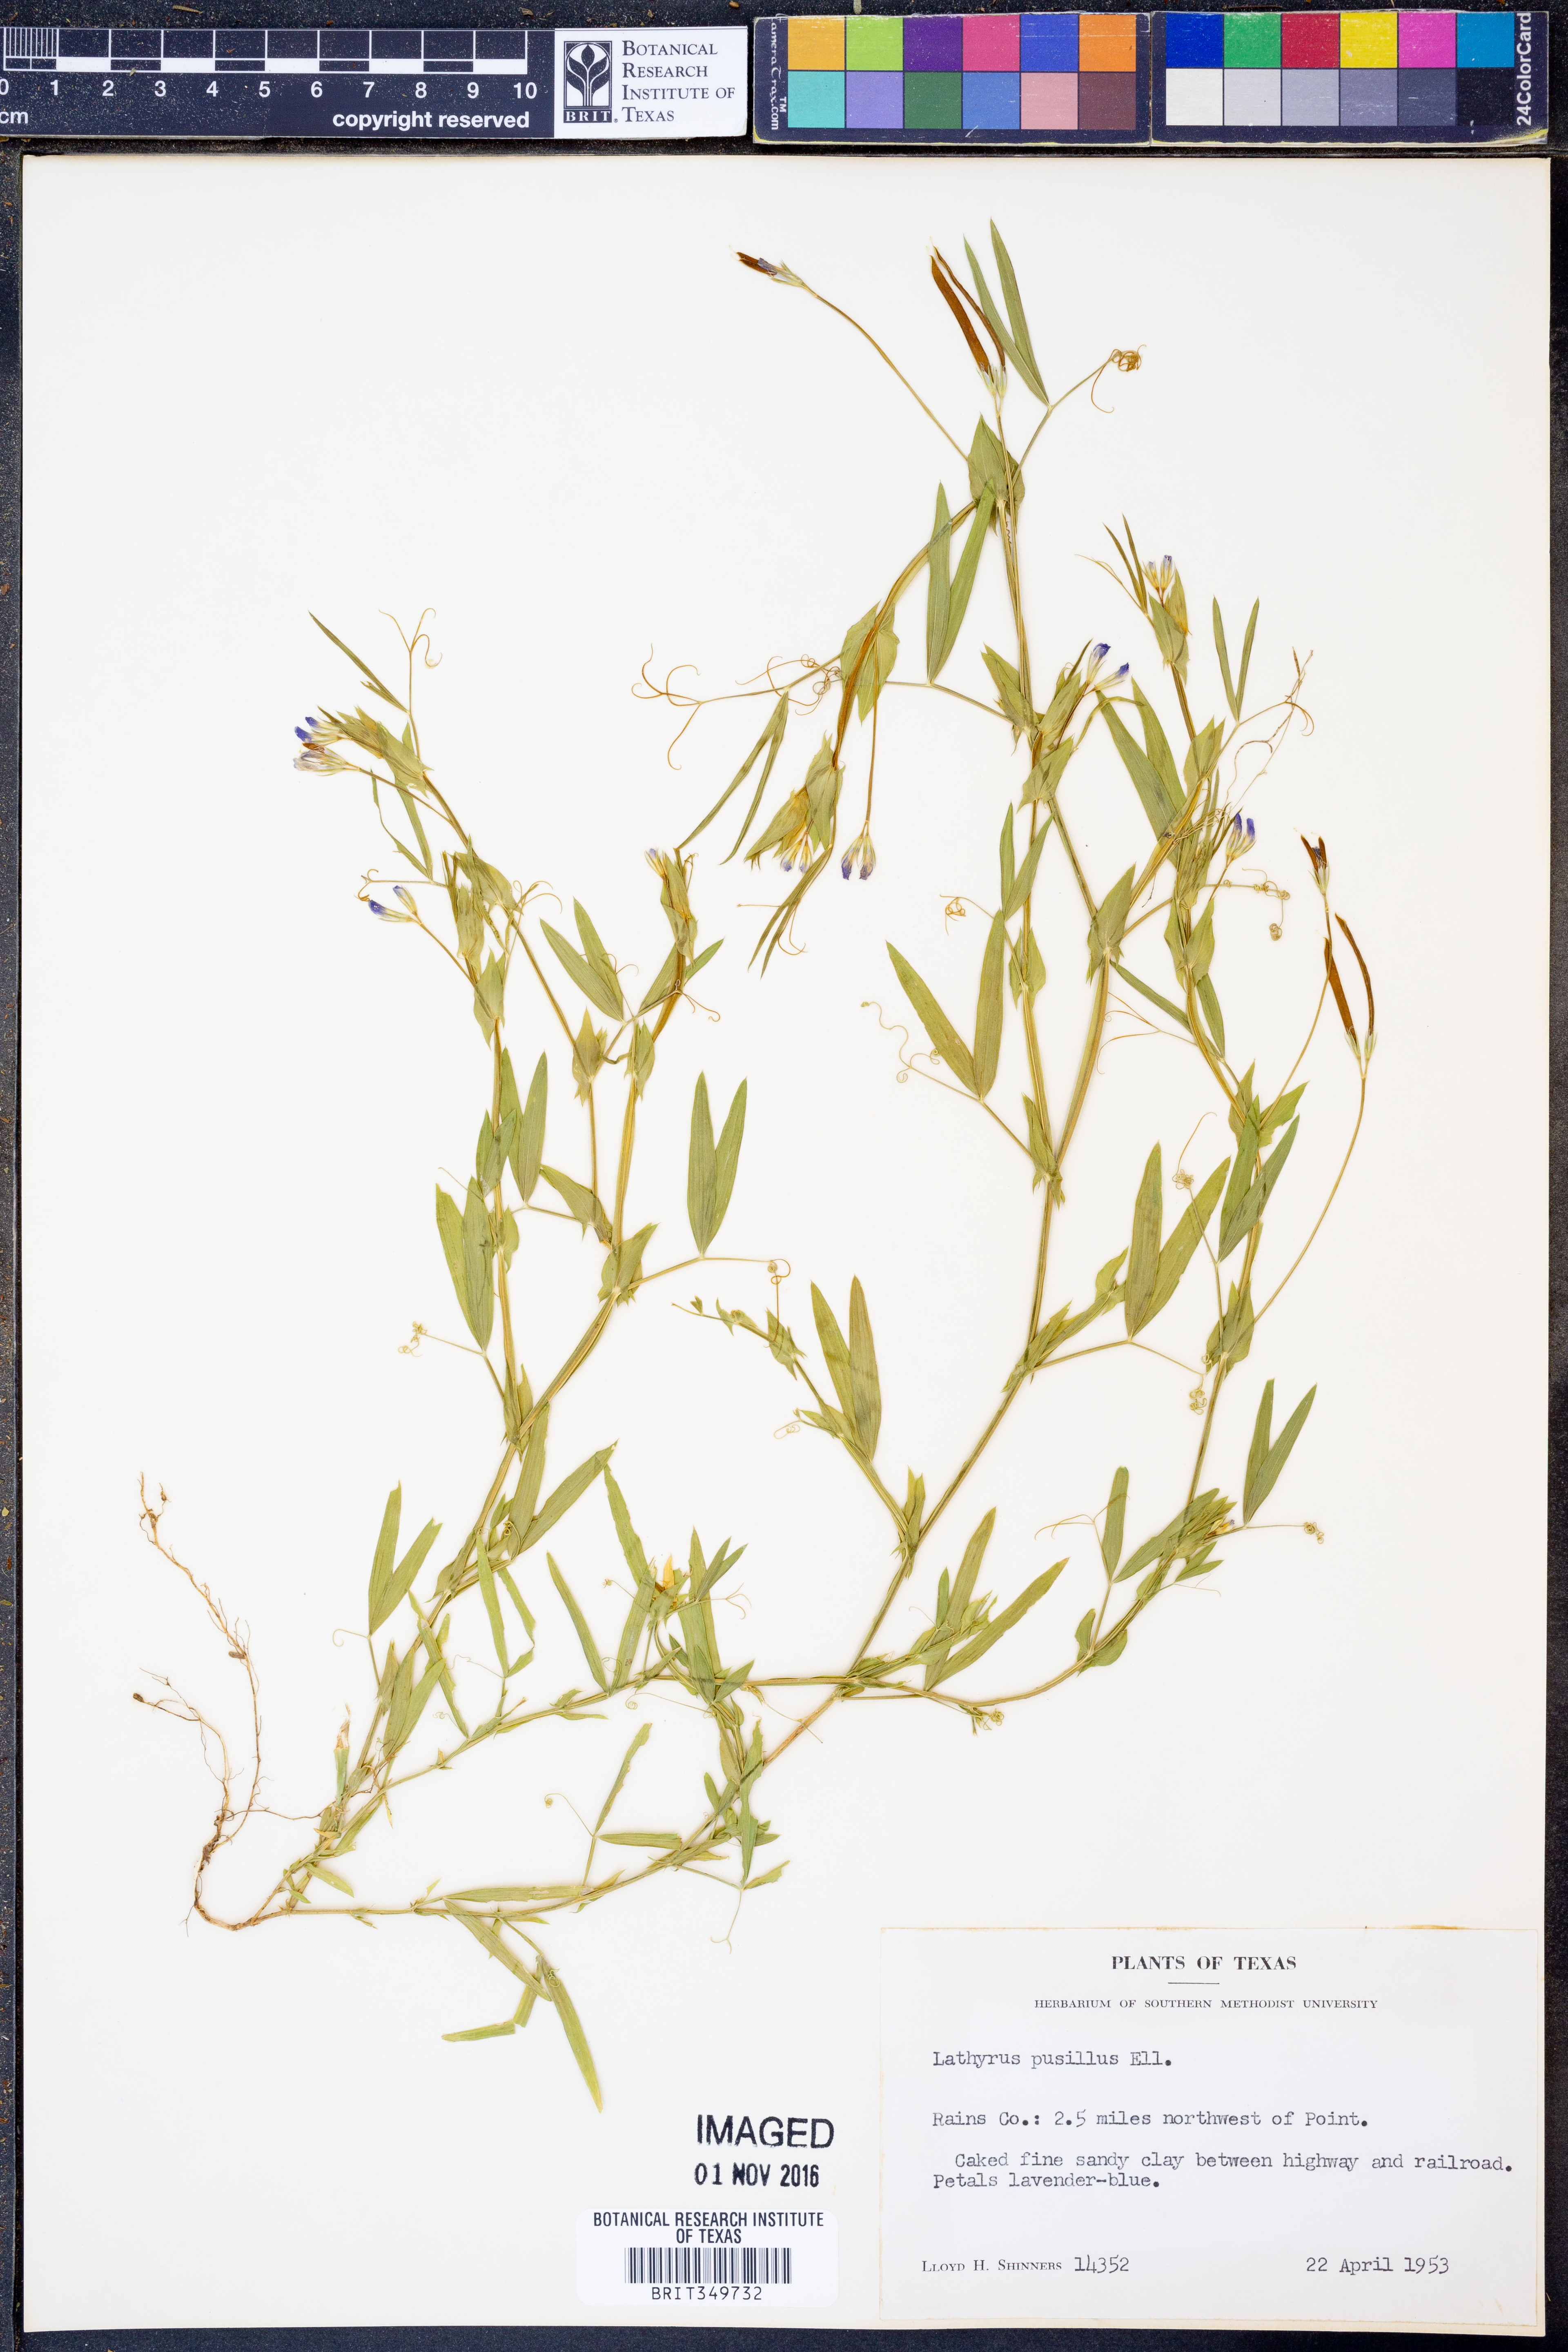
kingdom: Plantae
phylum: Tracheophyta
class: Magnoliopsida
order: Fabales
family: Fabaceae
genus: Lathyrus
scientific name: Lathyrus pusillus
